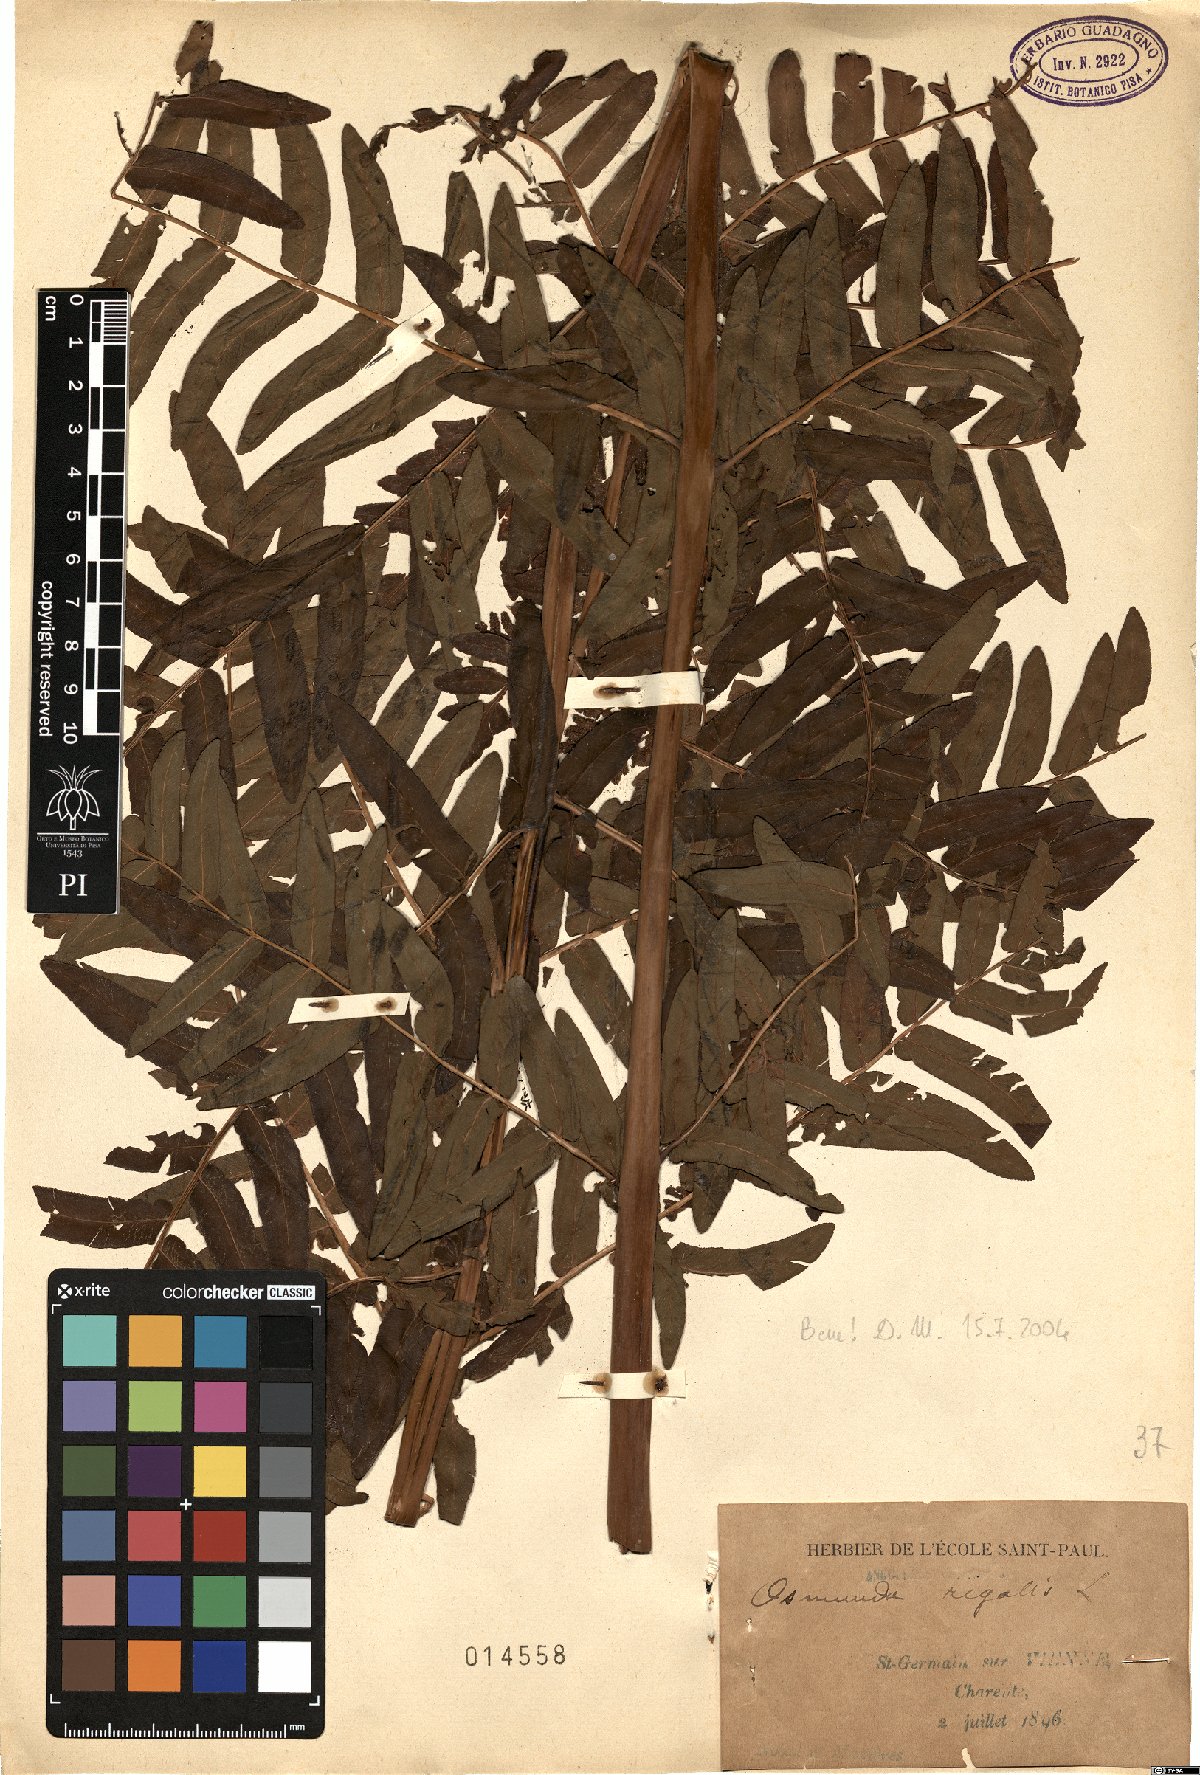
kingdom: Plantae
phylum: Tracheophyta
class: Polypodiopsida
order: Osmundales
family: Osmundaceae
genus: Osmunda
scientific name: Osmunda regalis
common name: Royal fern
